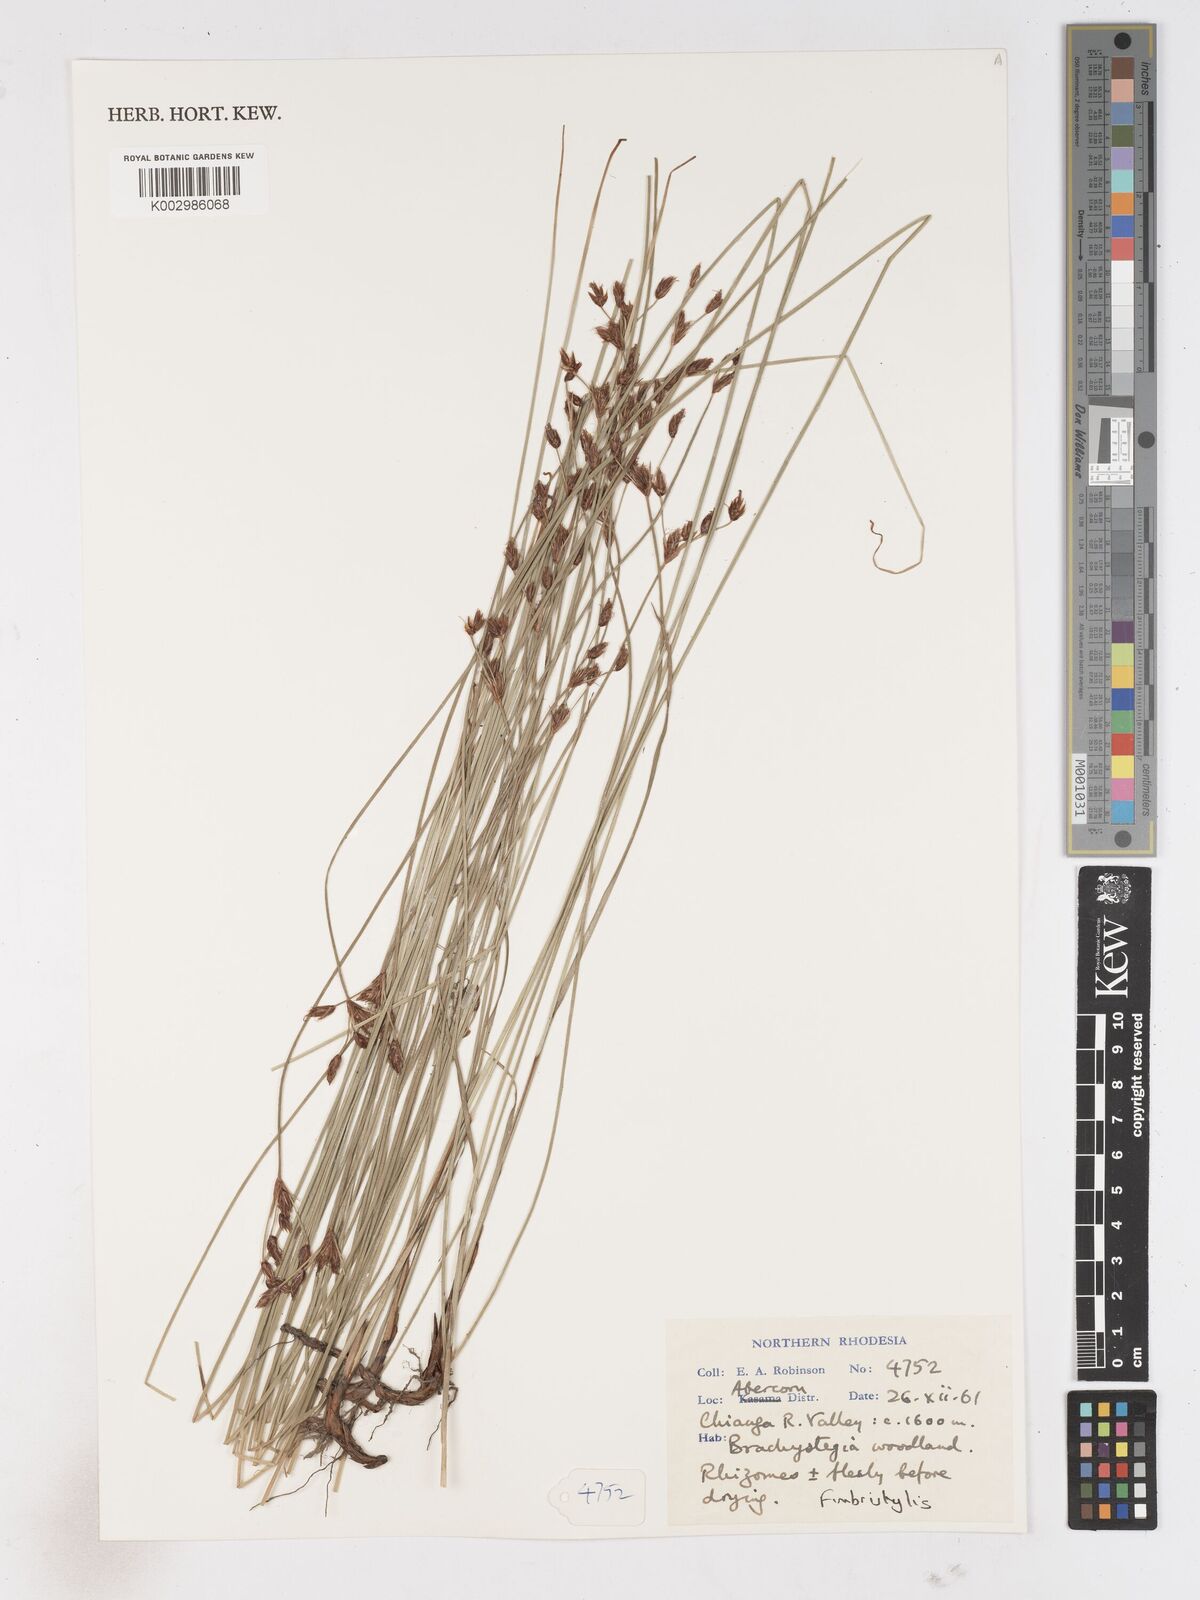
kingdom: Plantae
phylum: Tracheophyta
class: Liliopsida
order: Poales
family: Cyperaceae
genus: Fimbristylis
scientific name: Fimbristylis
